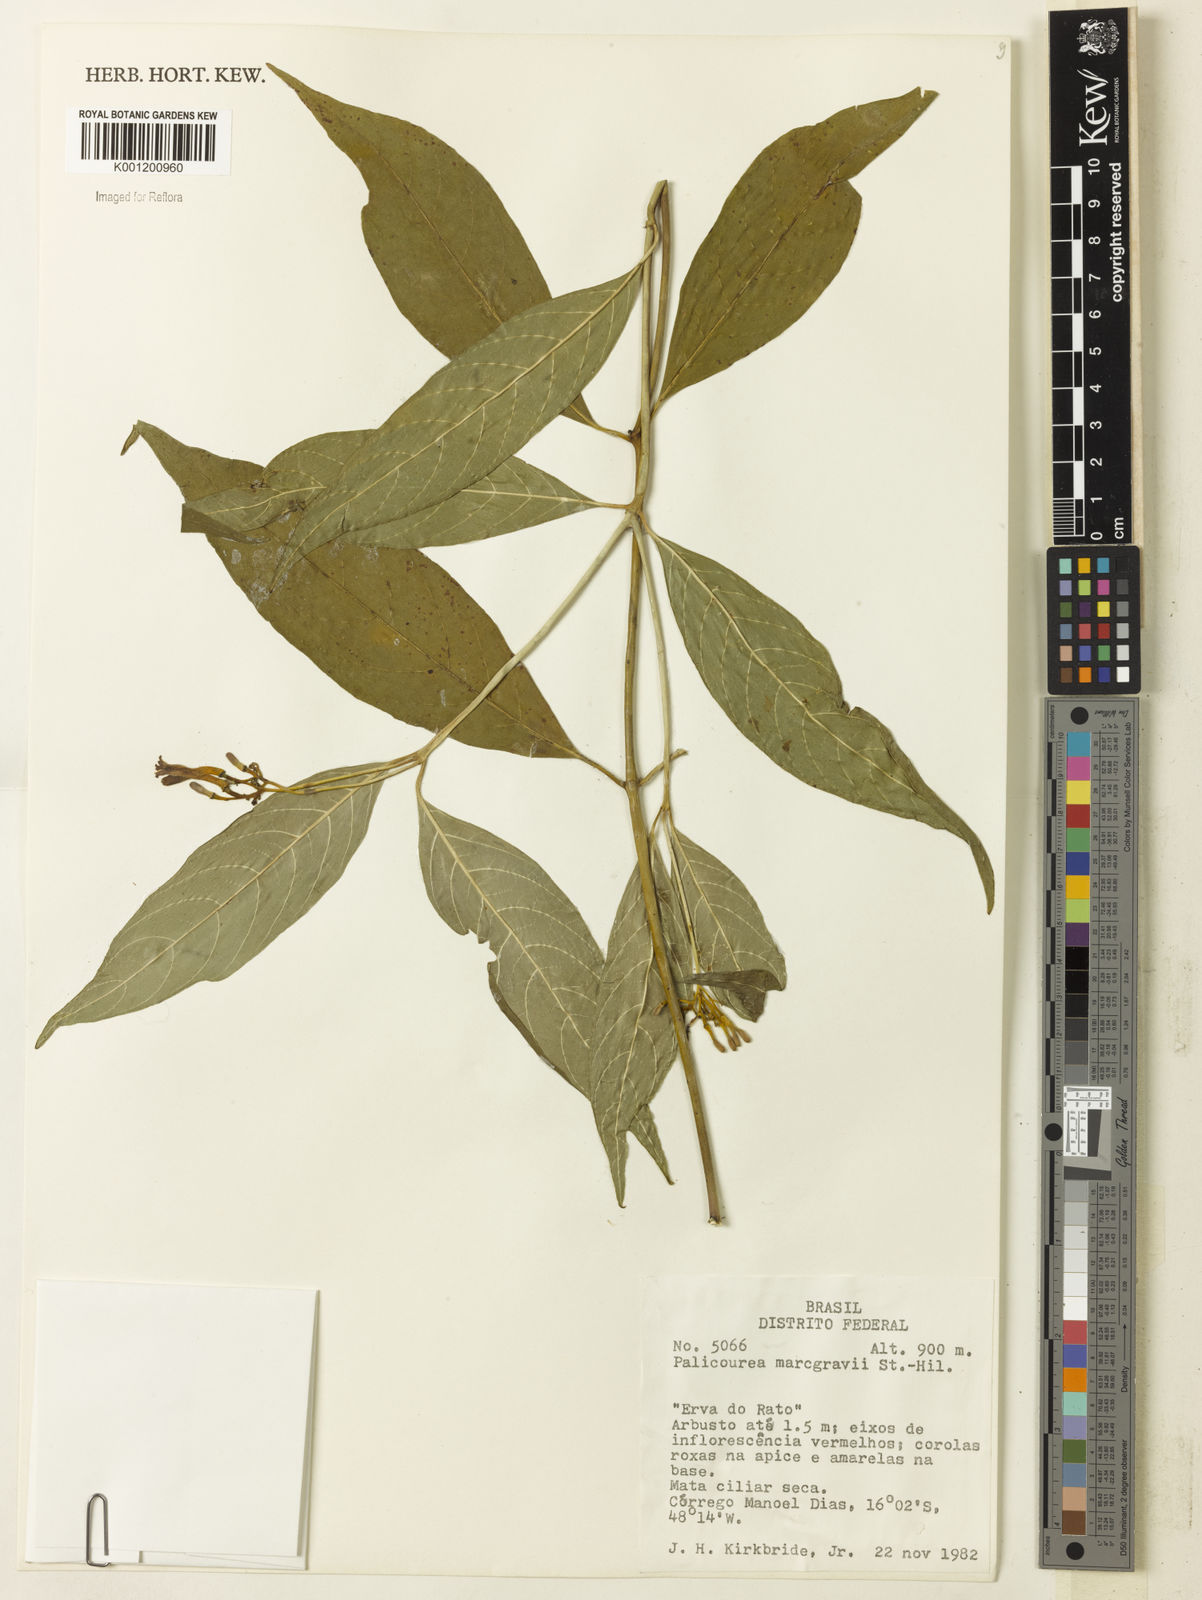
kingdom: Plantae
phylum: Tracheophyta
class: Magnoliopsida
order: Gentianales
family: Rubiaceae
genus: Palicourea
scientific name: Palicourea marcgravii
